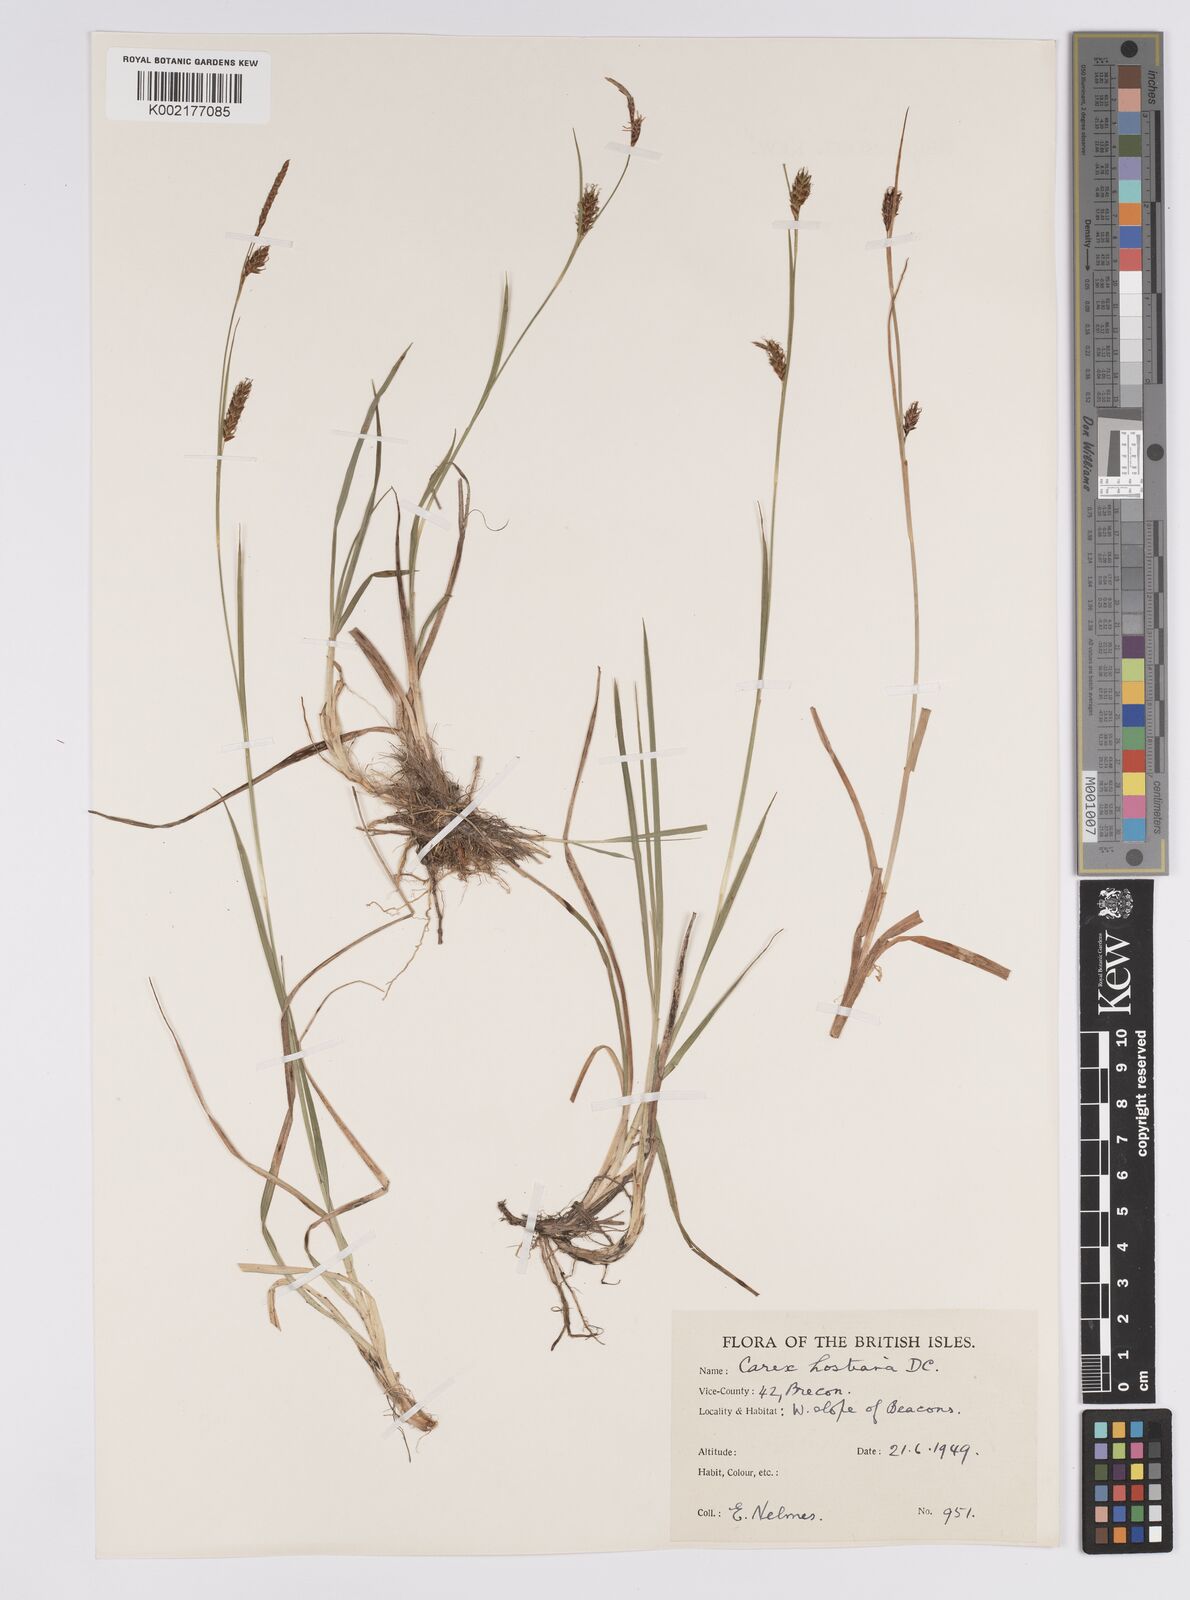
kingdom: Plantae
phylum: Tracheophyta
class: Liliopsida
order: Poales
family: Cyperaceae
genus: Carex
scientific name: Carex hostiana
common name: Tawny sedge
